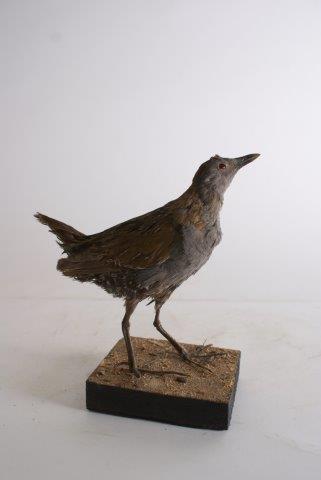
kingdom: Animalia
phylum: Chordata
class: Aves
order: Gruiformes
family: Rallidae
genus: Porzana
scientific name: Porzana pusilla
